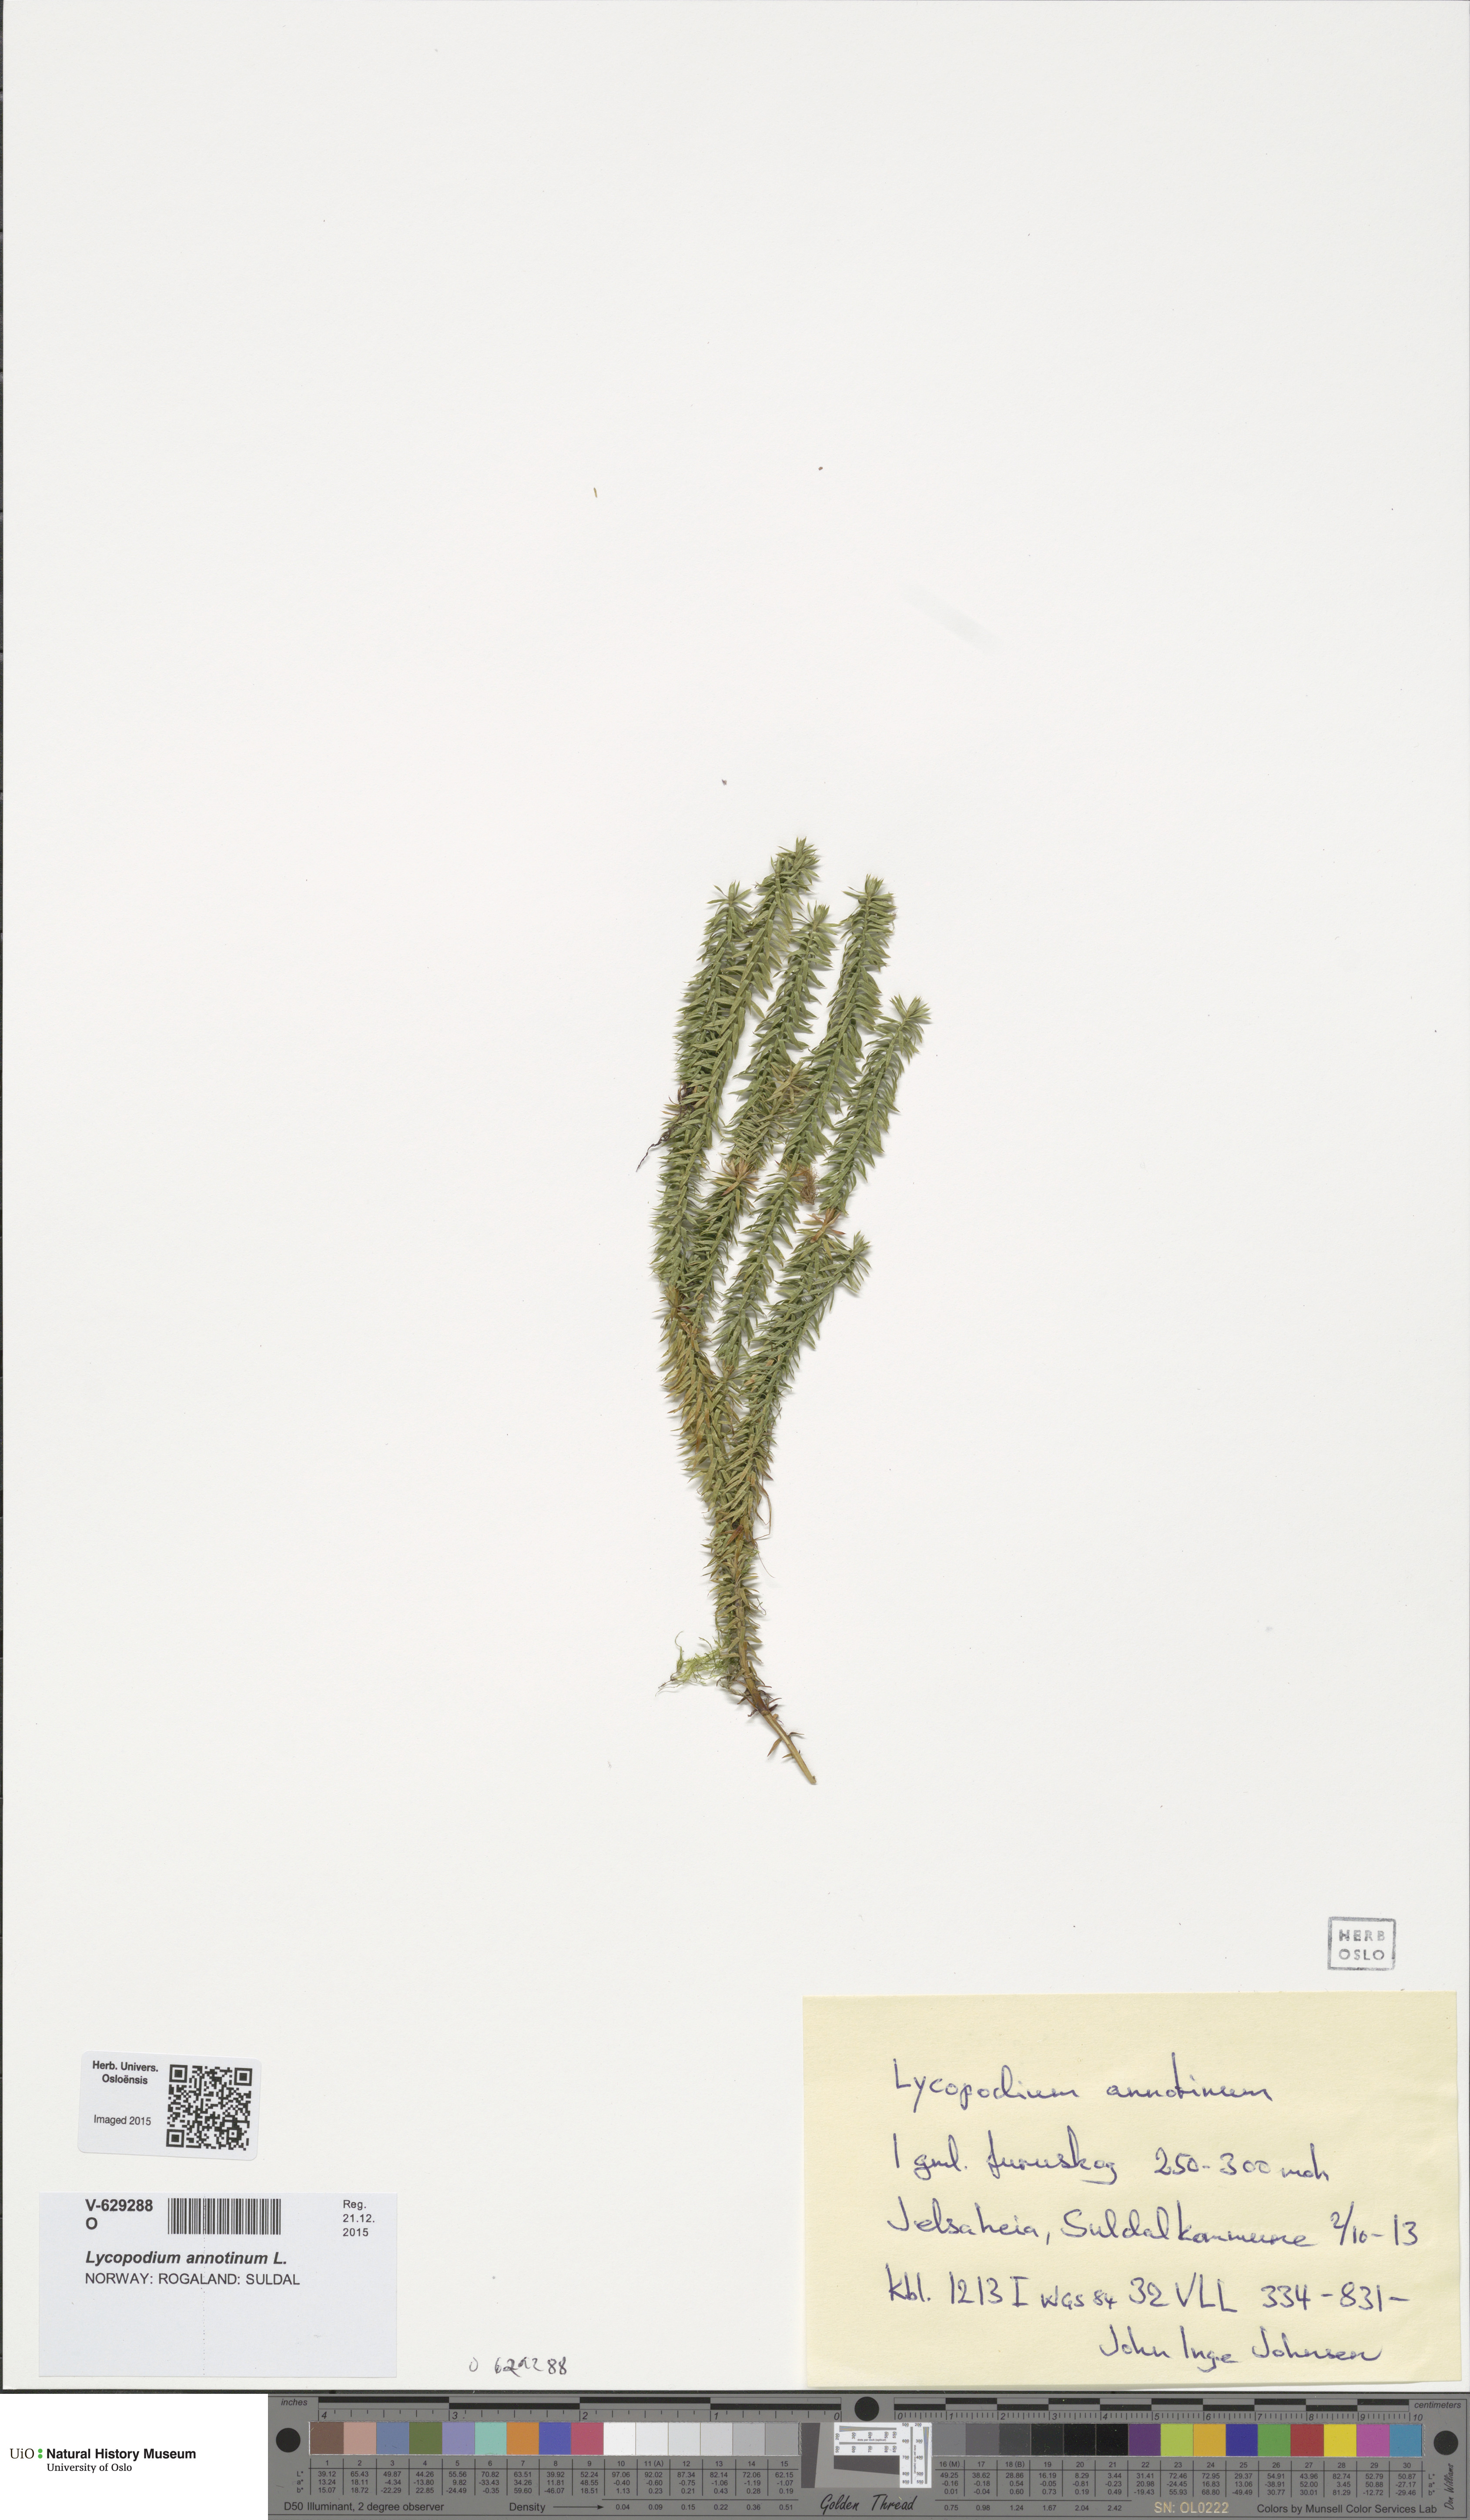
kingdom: Plantae
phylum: Tracheophyta
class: Lycopodiopsida
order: Lycopodiales
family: Lycopodiaceae
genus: Spinulum
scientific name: Spinulum annotinum
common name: Interrupted club-moss
